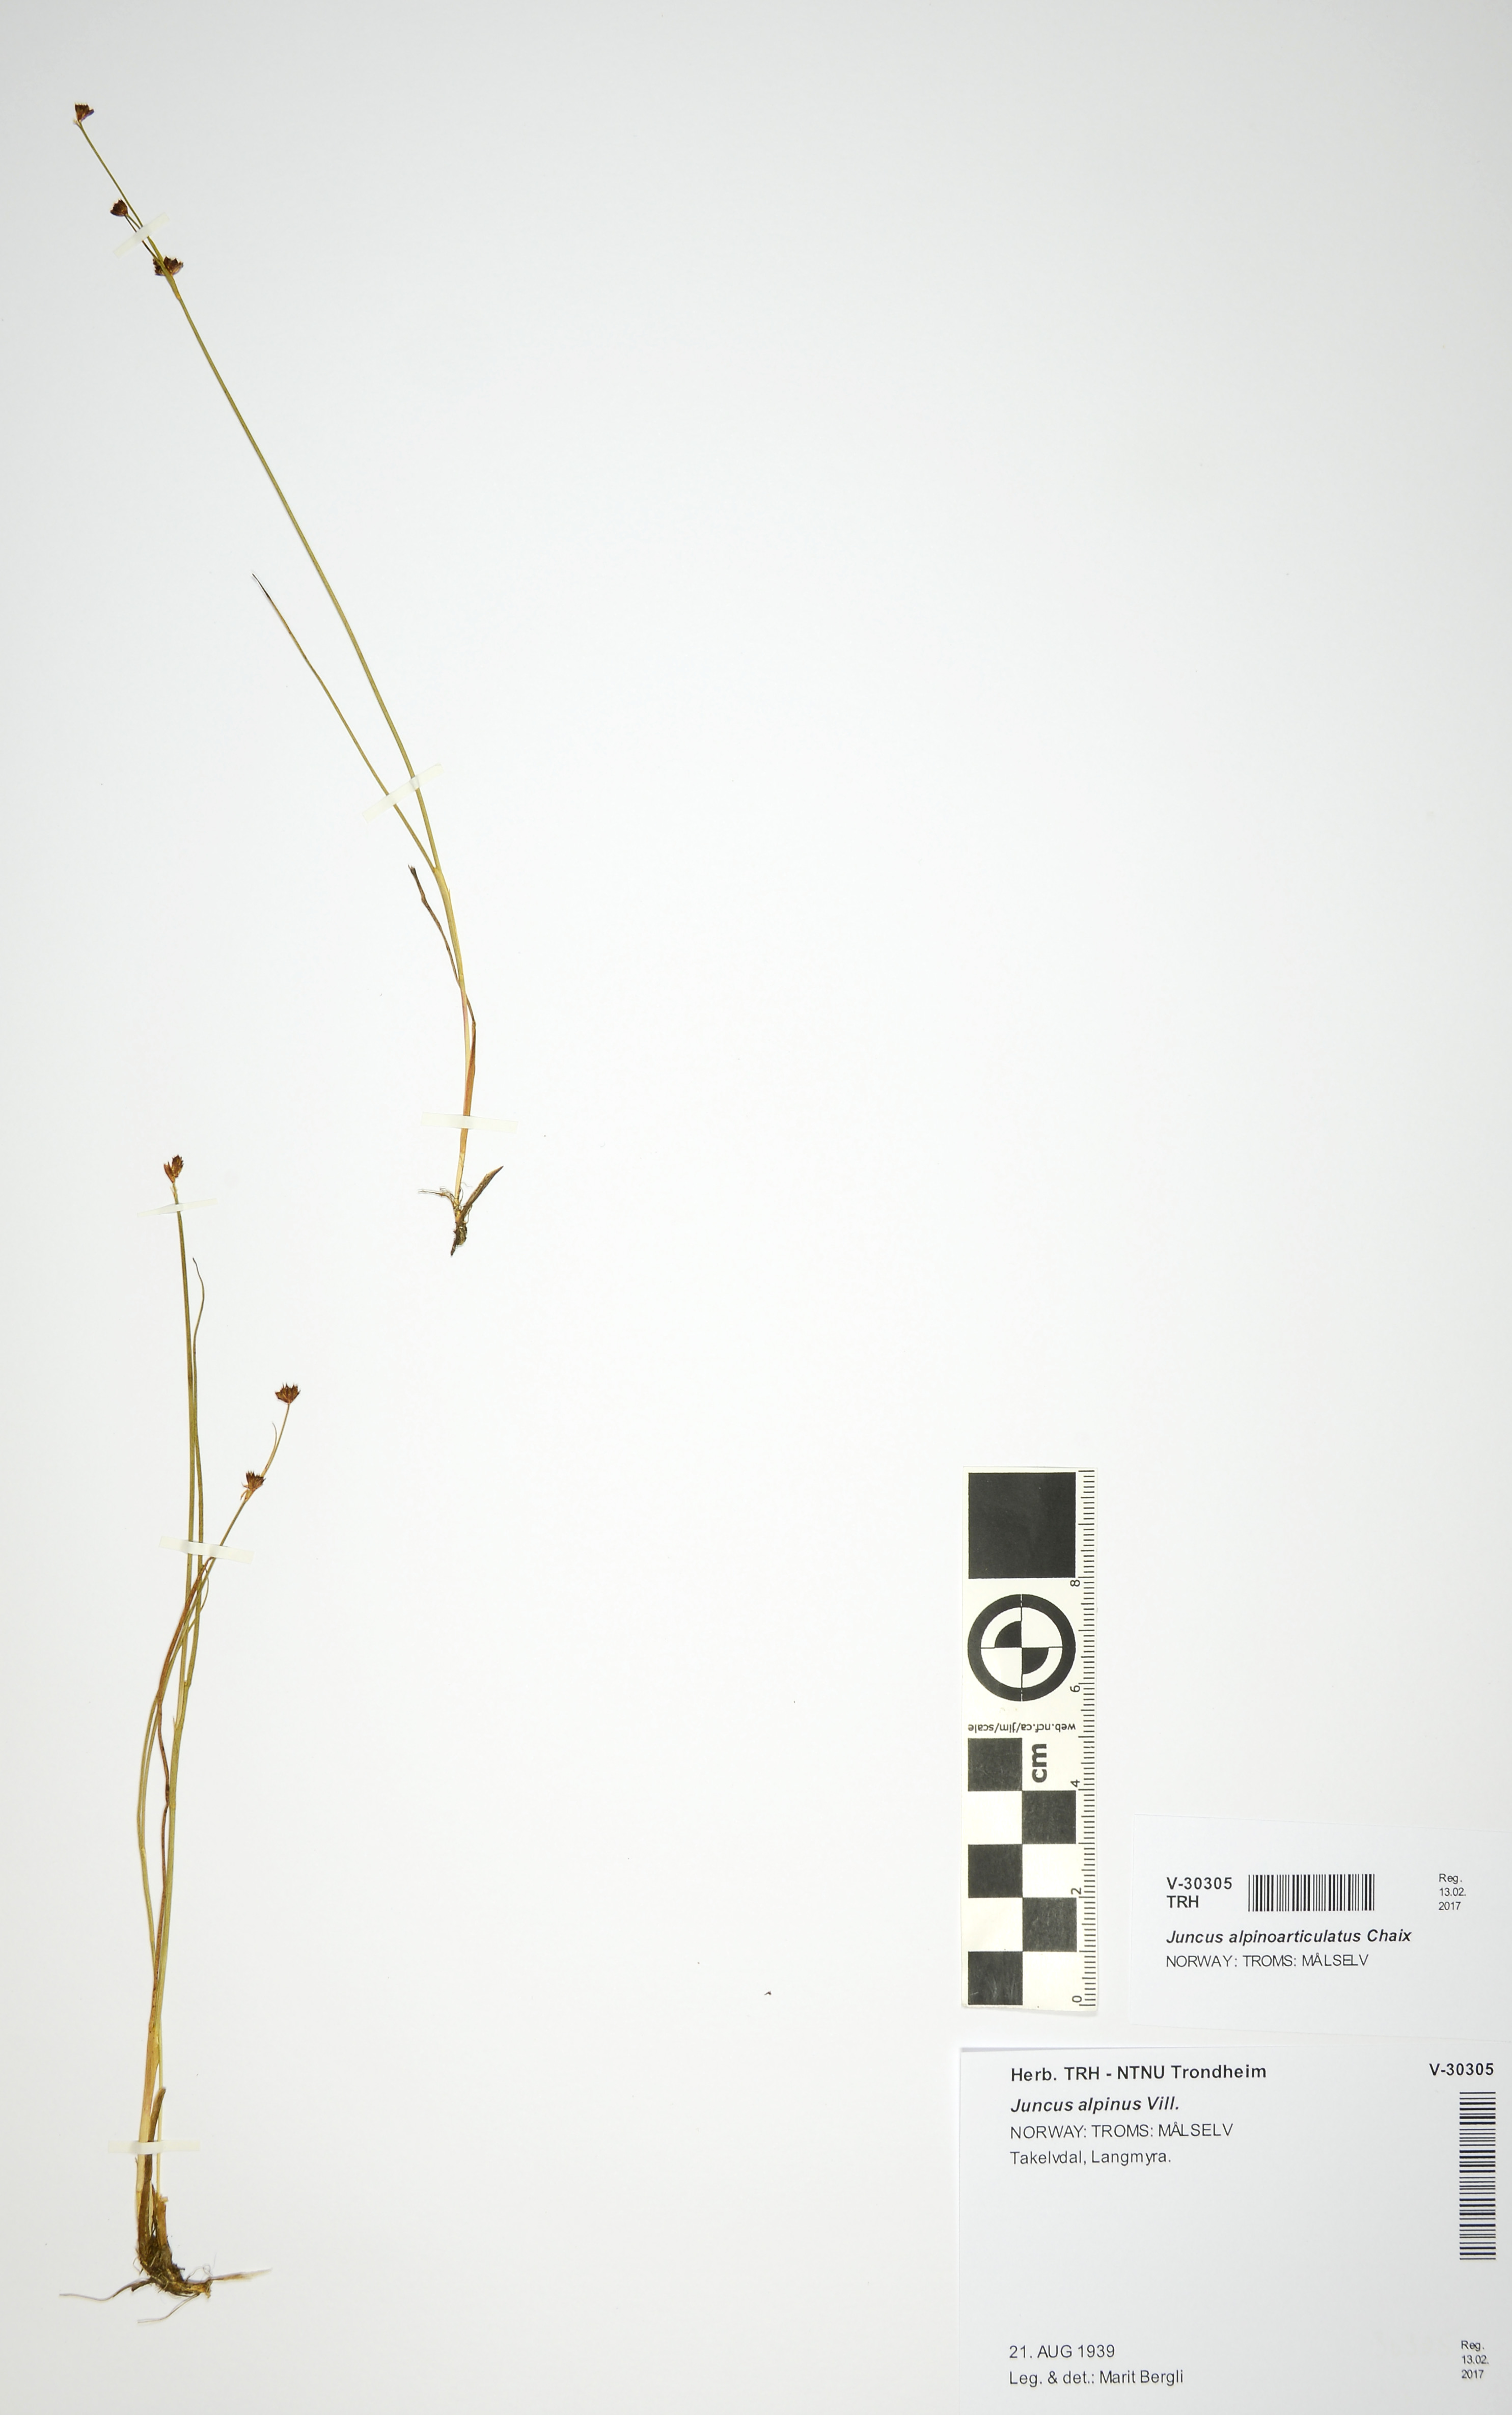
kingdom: Plantae
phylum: Tracheophyta
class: Liliopsida
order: Poales
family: Juncaceae
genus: Juncus
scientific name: Juncus alpinoarticulatus
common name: Alpine rush
